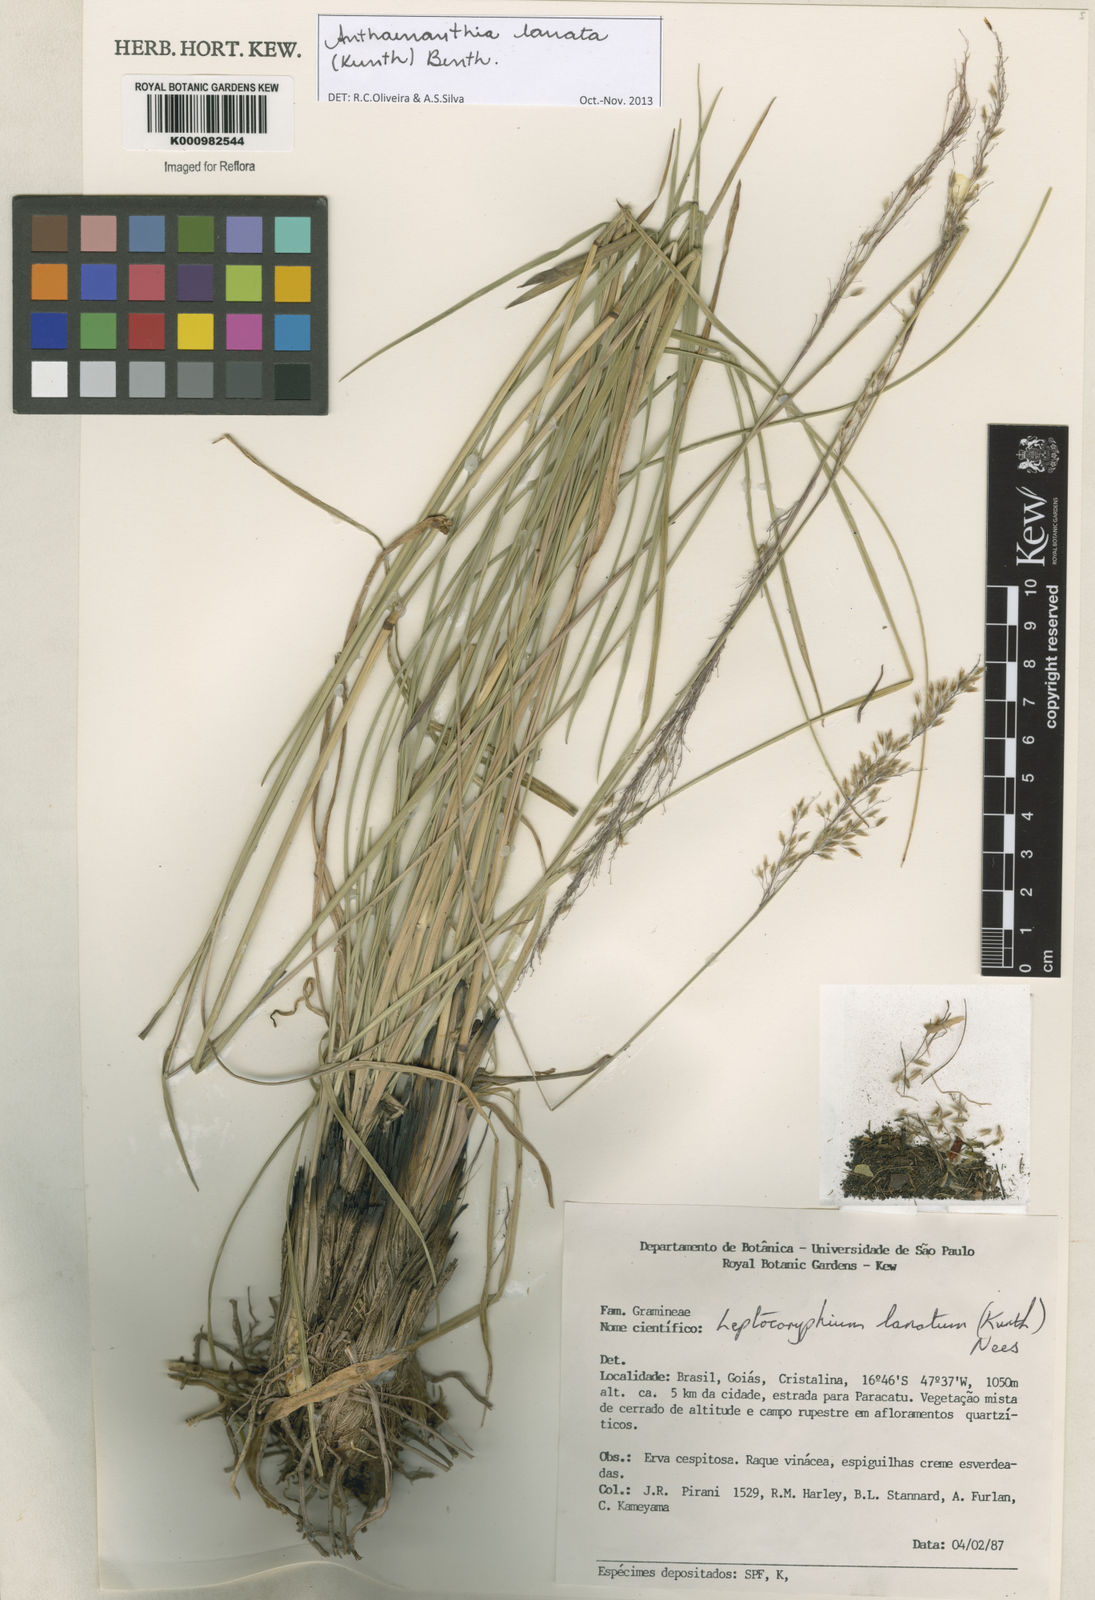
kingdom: Plantae
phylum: Tracheophyta
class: Liliopsida
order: Poales
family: Poaceae
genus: Anthenantia
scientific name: Anthenantia lanata
